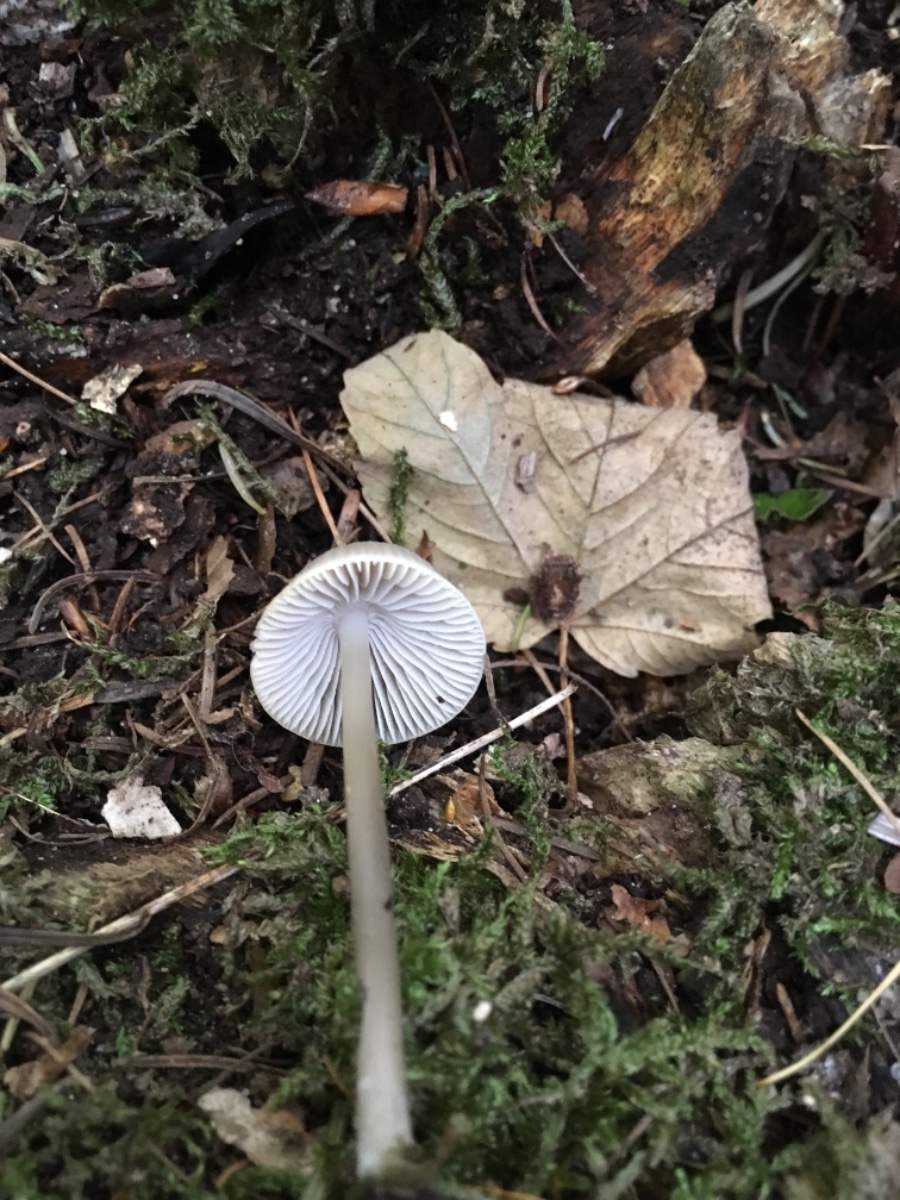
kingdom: Fungi
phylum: Basidiomycota
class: Agaricomycetes
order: Agaricales
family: Mycenaceae
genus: Mycena
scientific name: Mycena galericulata
